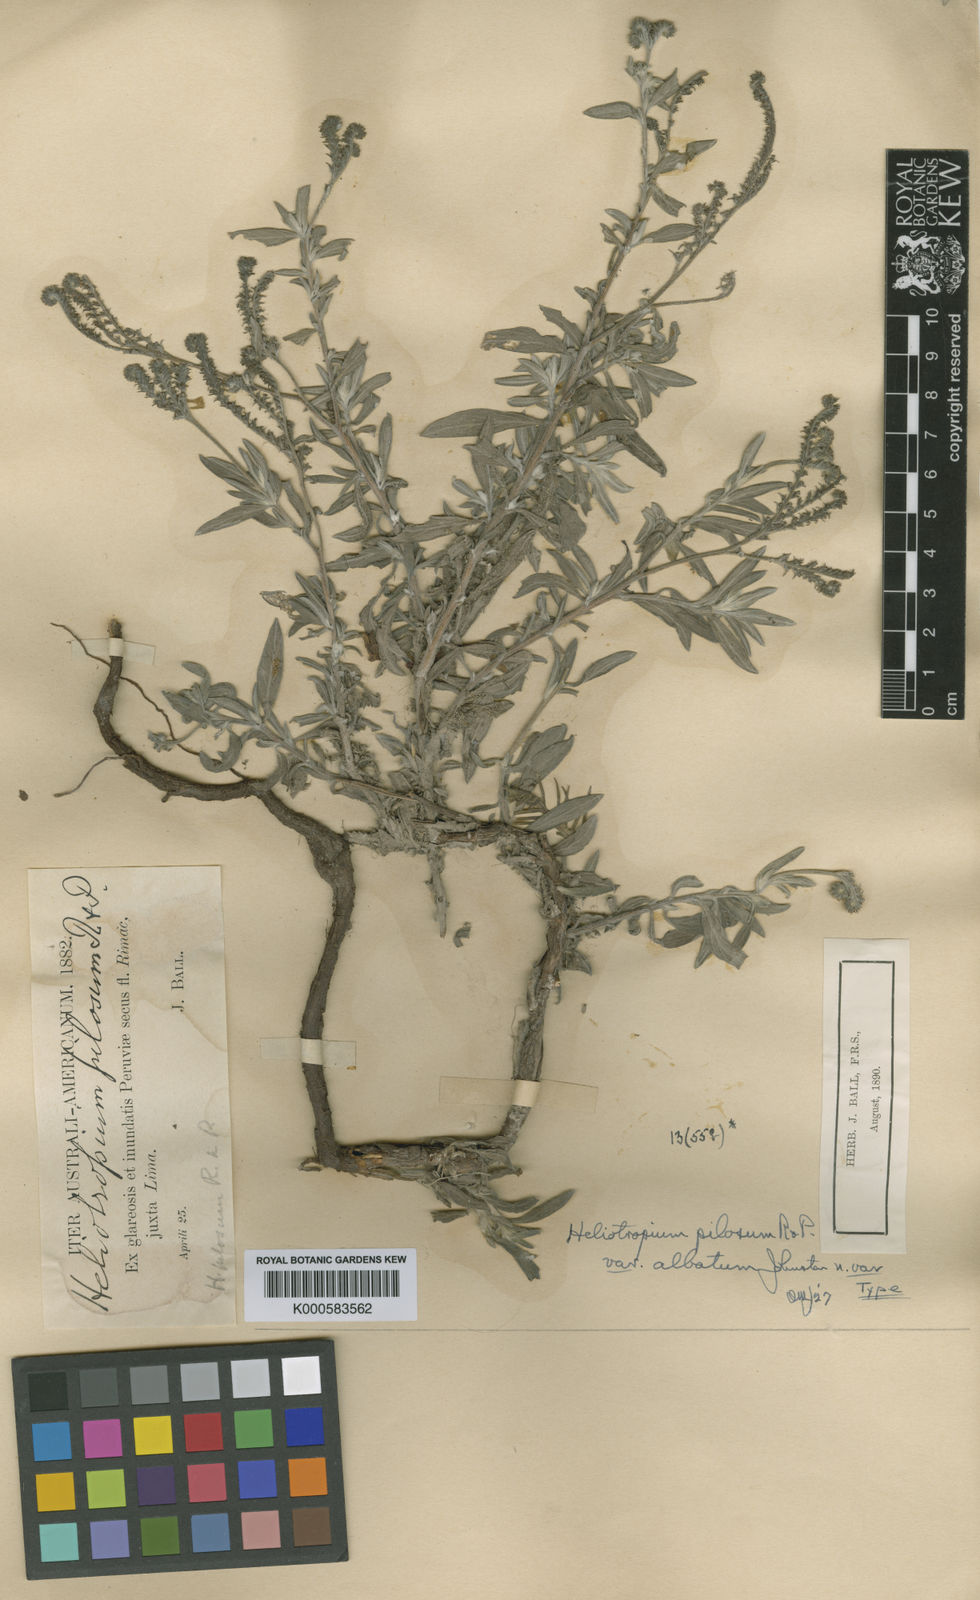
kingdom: Plantae
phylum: Tracheophyta
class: Magnoliopsida
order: Boraginales
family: Heliotropiaceae
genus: Euploca
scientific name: Euploca pilosa
